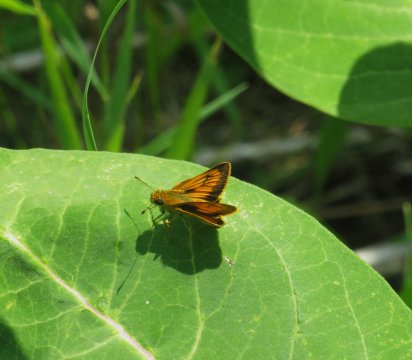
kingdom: Animalia
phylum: Arthropoda
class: Insecta
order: Lepidoptera
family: Hesperiidae
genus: Atrytone
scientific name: Atrytone delaware
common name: Delaware Skipper
